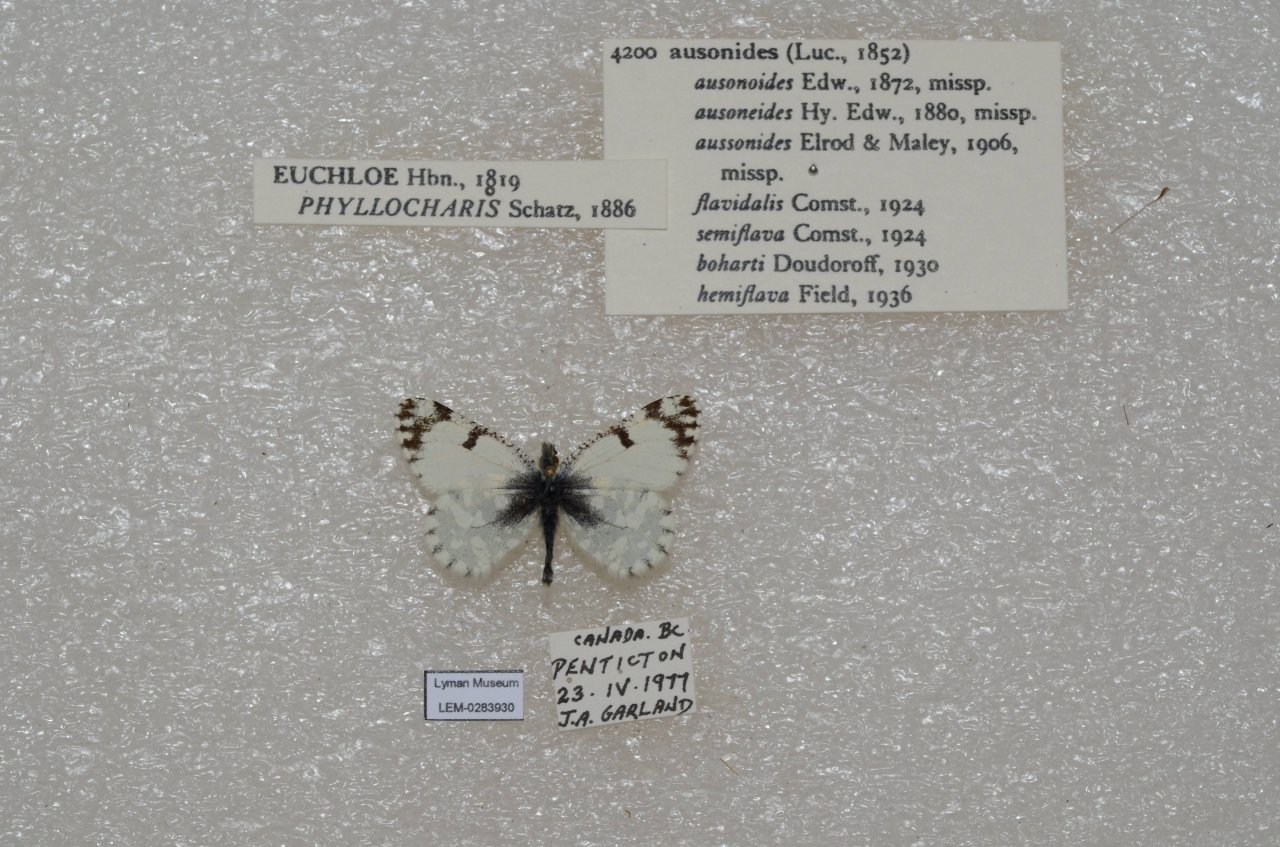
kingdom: Animalia
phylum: Arthropoda
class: Insecta
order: Lepidoptera
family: Pieridae
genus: Euchloe
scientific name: Euchloe ausonides
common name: Large Marble
